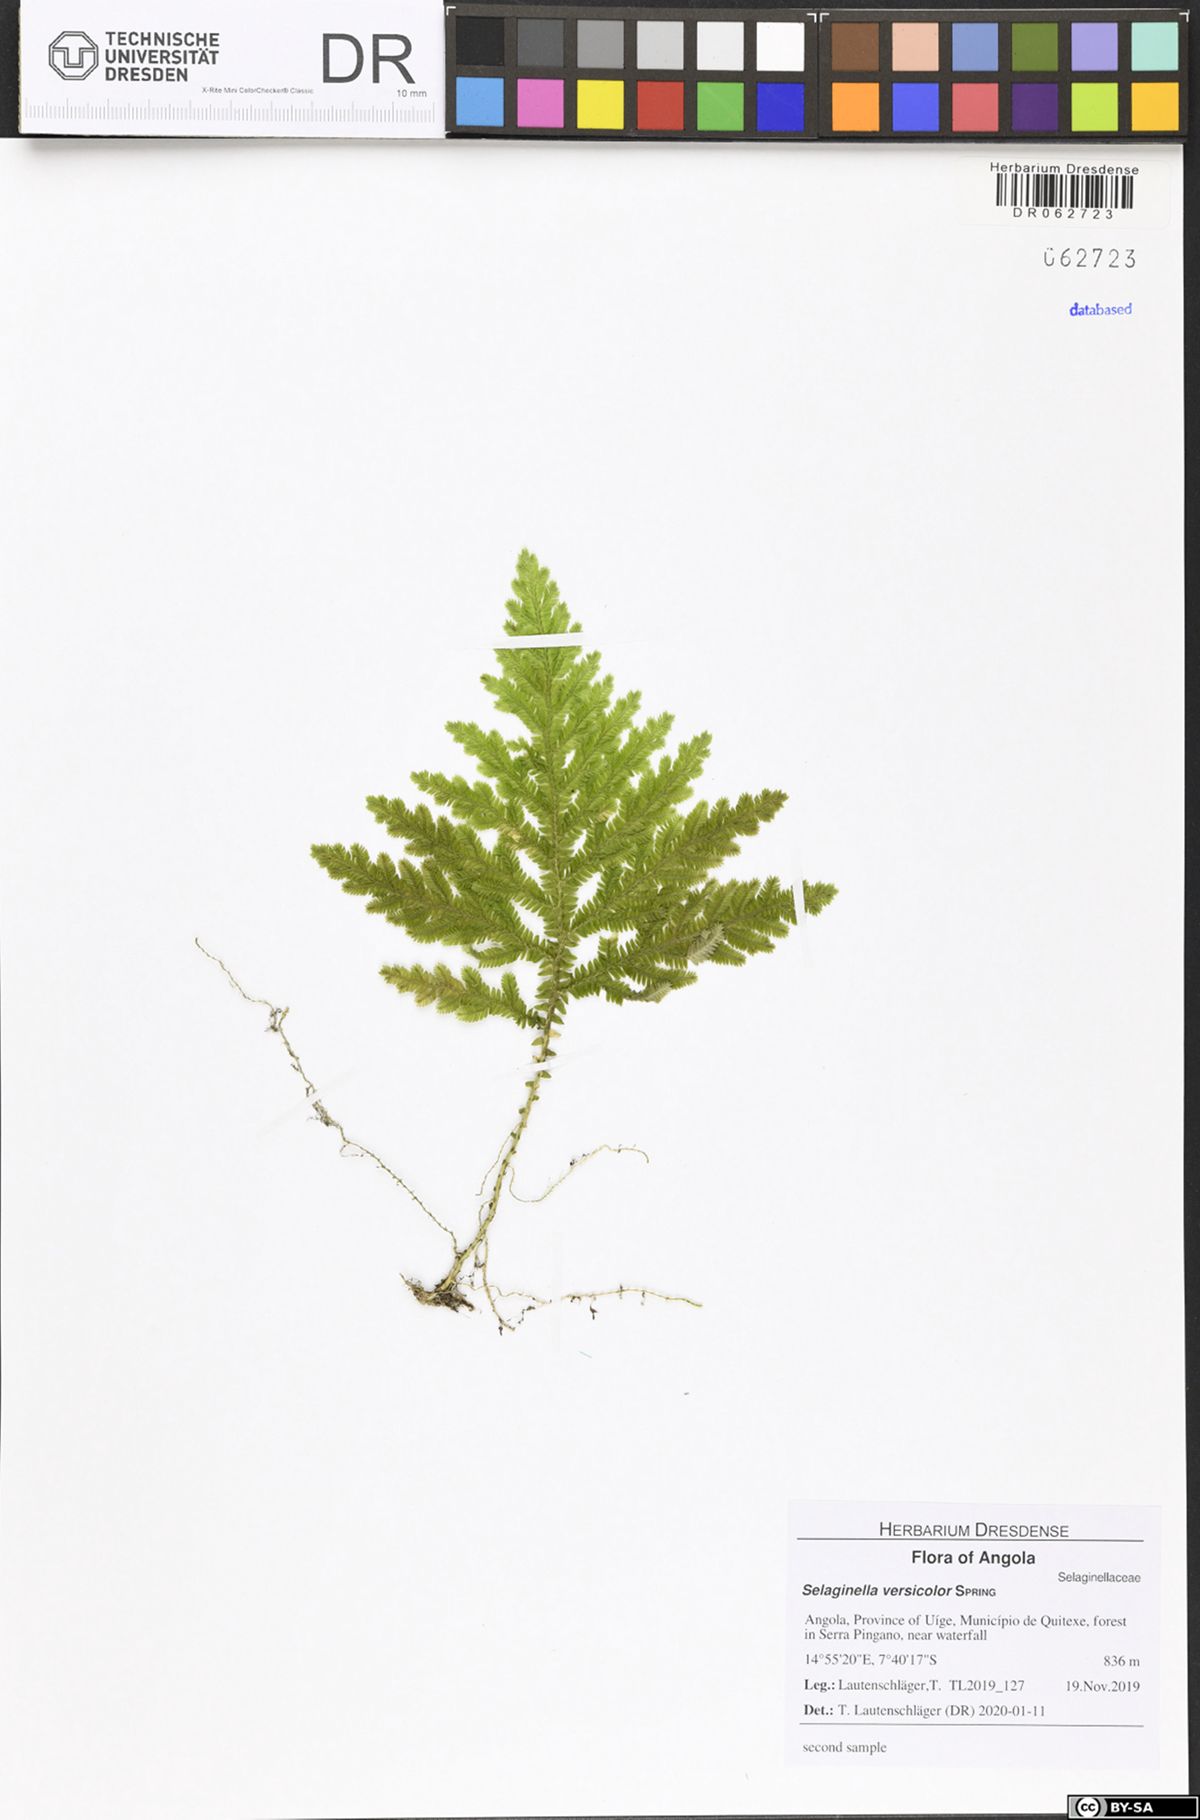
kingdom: Plantae
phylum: Tracheophyta
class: Lycopodiopsida
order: Selaginellales
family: Selaginellaceae
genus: Selaginella
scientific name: Selaginella versicolor
